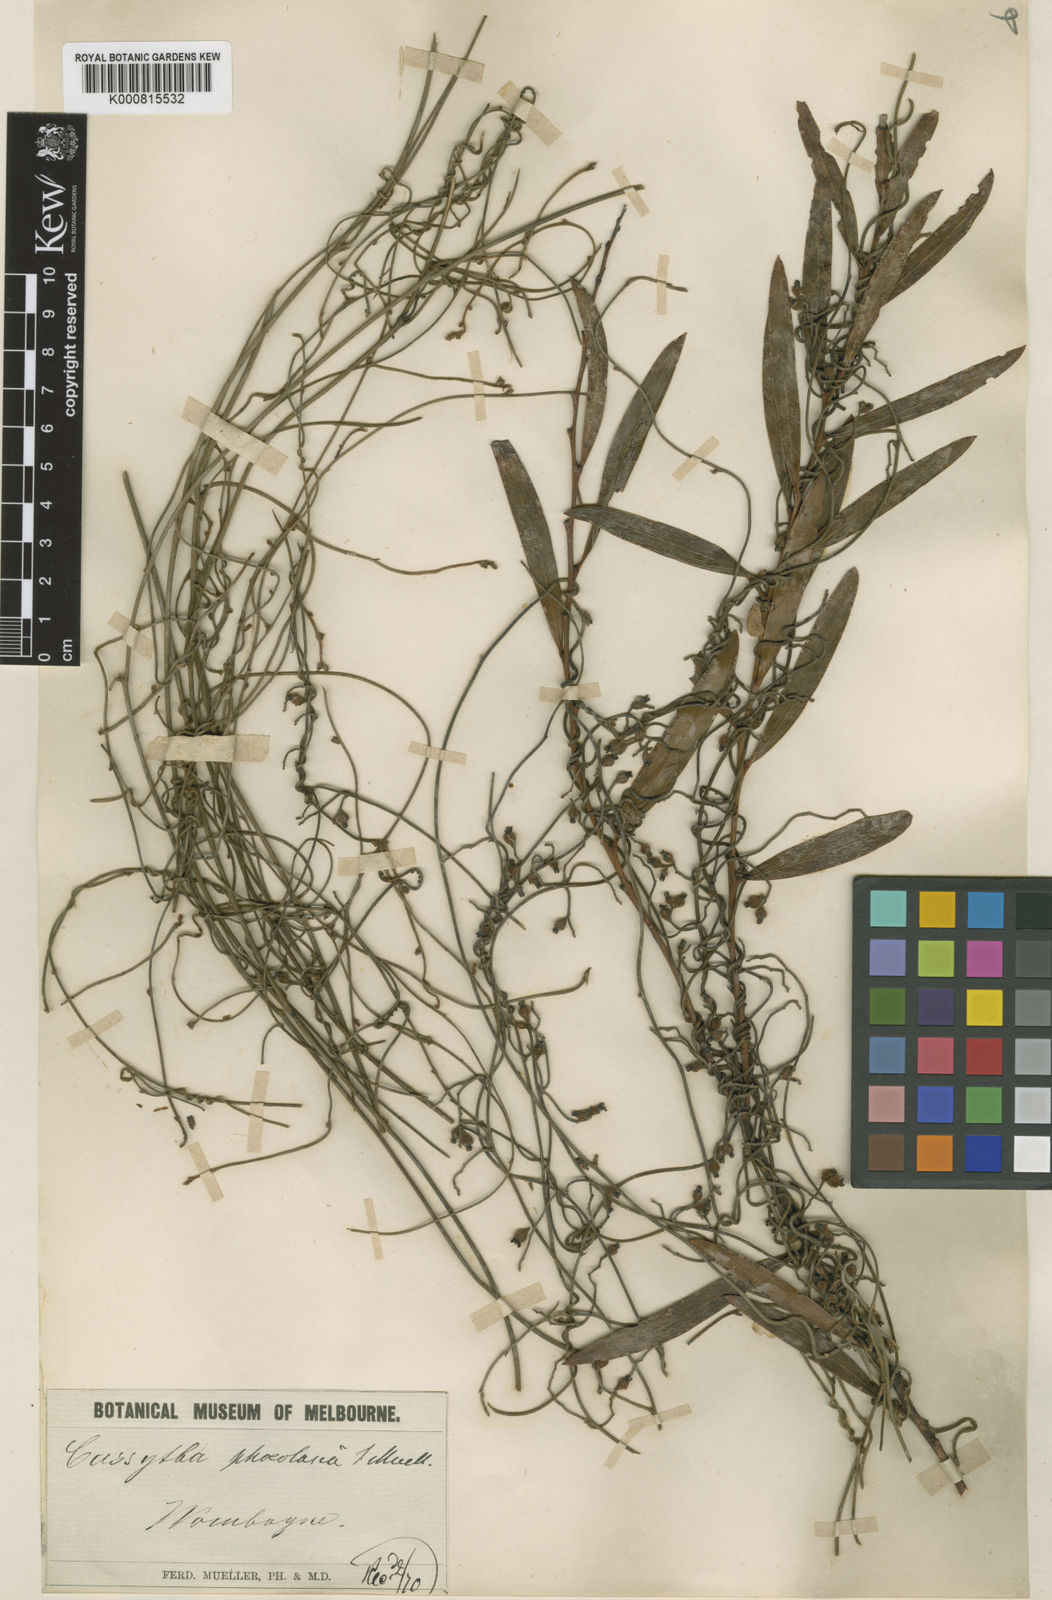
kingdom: Plantae
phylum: Tracheophyta
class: Magnoliopsida
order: Laurales
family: Lauraceae
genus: Cassytha
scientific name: Cassytha pubescens
